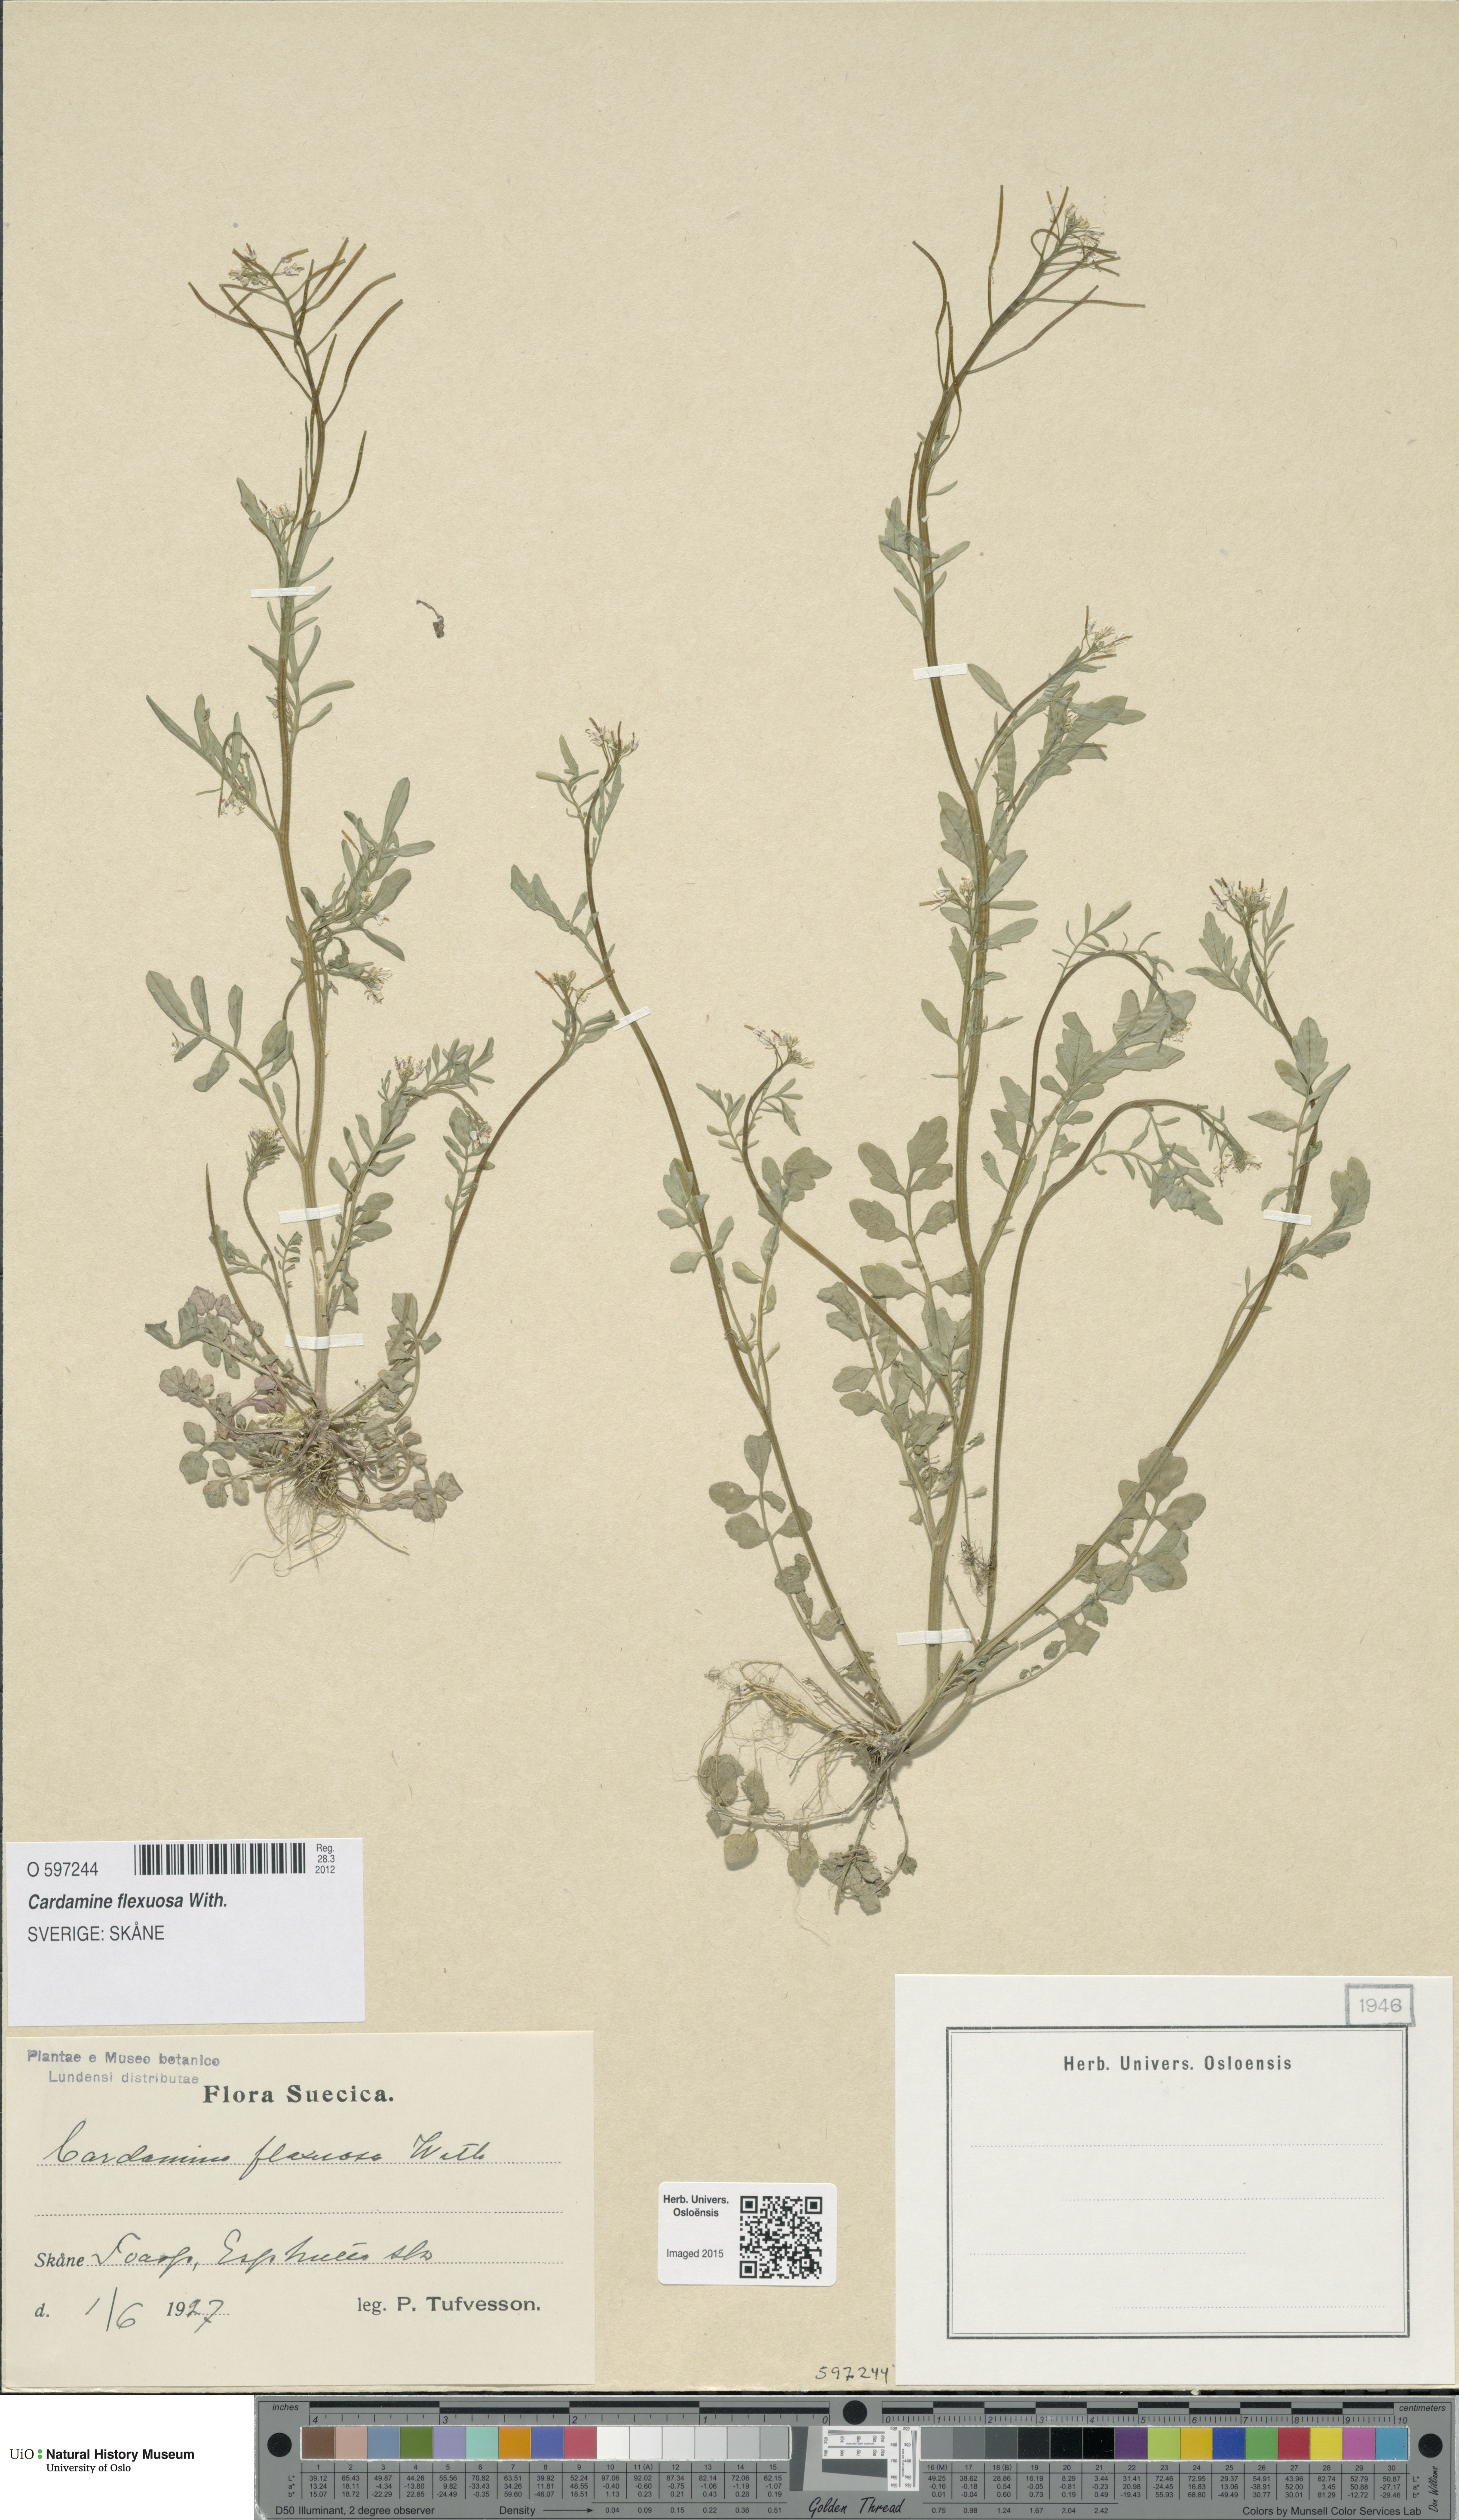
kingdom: Plantae
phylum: Tracheophyta
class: Magnoliopsida
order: Brassicales
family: Brassicaceae
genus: Cardamine
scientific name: Cardamine flexuosa
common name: Woodland bittercress
